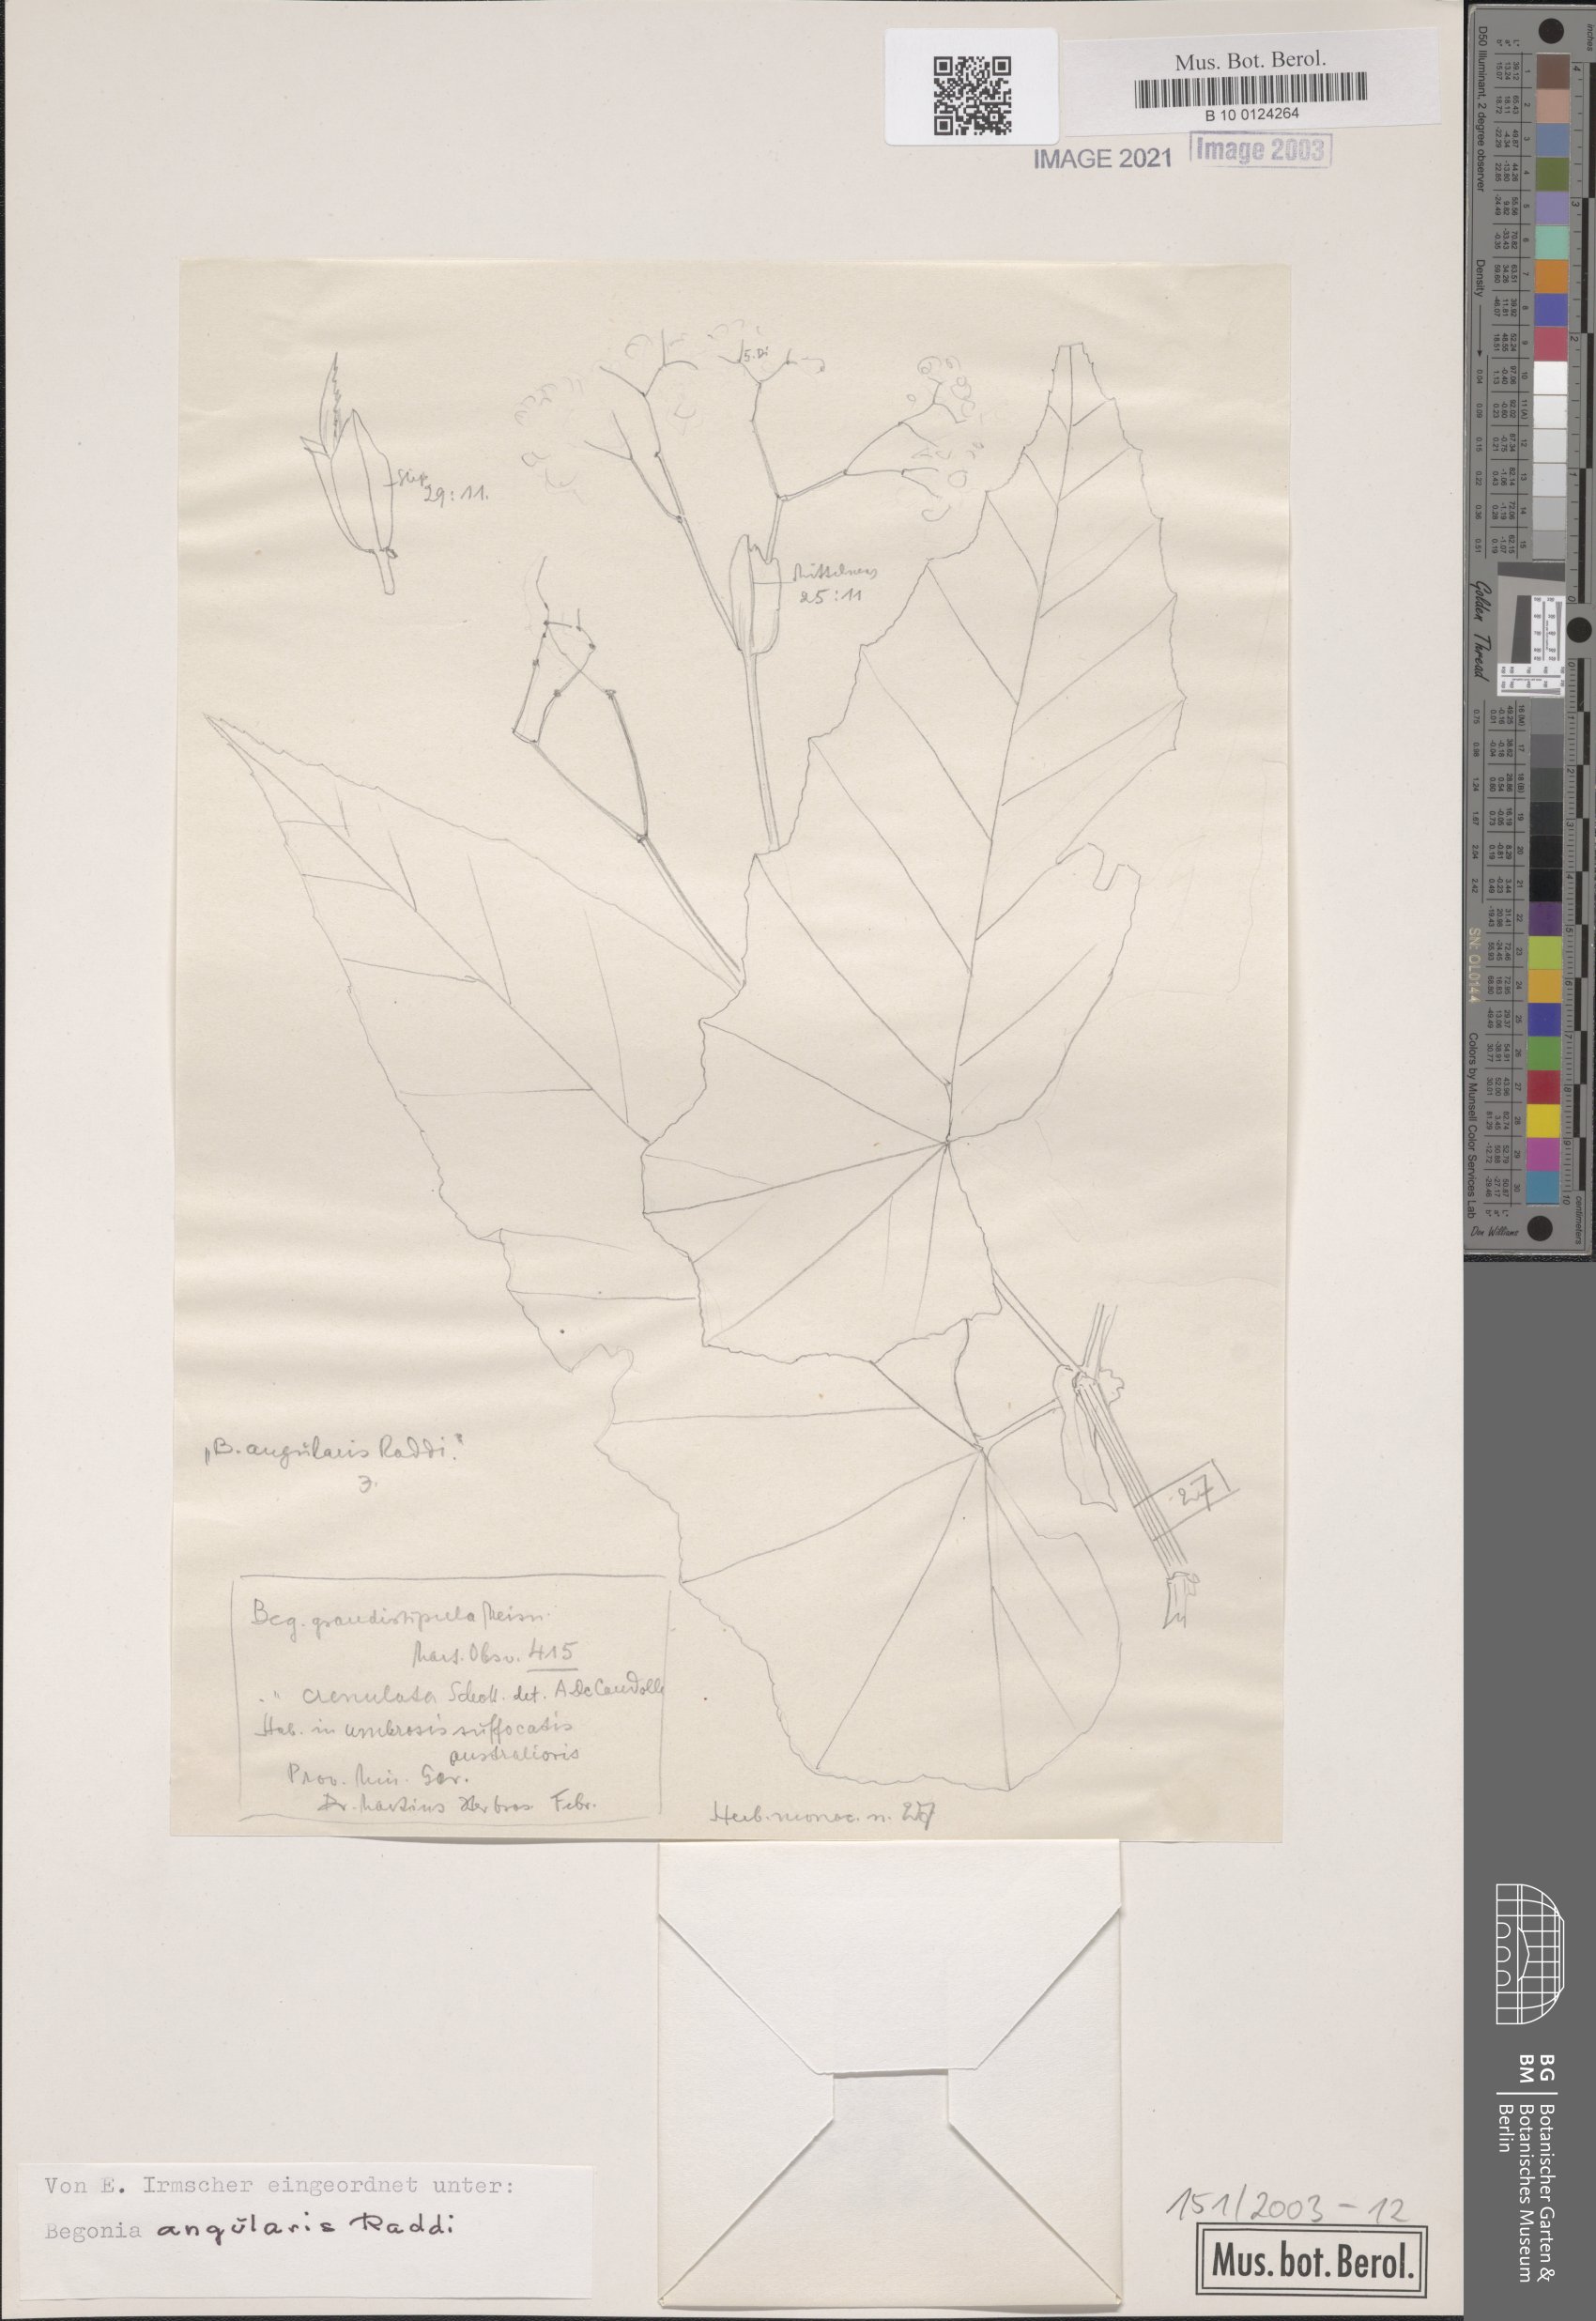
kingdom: Plantae
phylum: Tracheophyta
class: Magnoliopsida
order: Cucurbitales
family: Begoniaceae
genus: Begonia
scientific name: Begonia angularis
